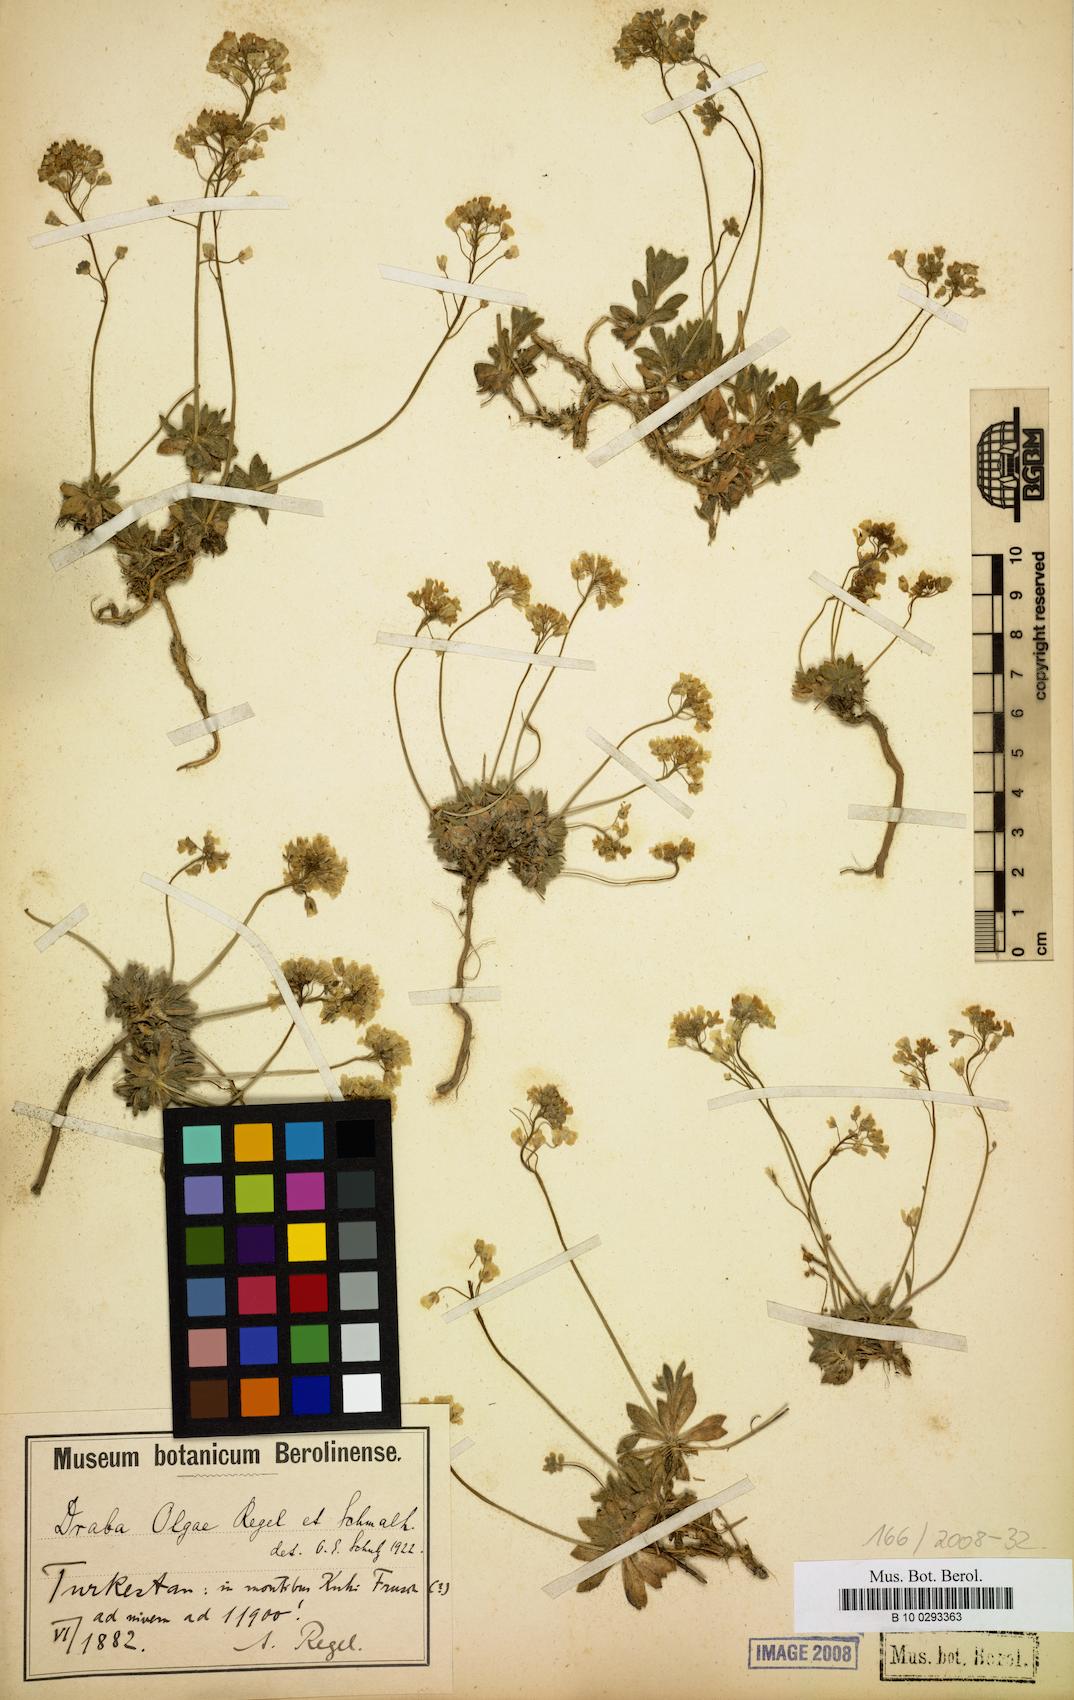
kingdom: Plantae
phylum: Tracheophyta
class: Magnoliopsida
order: Brassicales
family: Brassicaceae
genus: Draba
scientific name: Draba olgae
